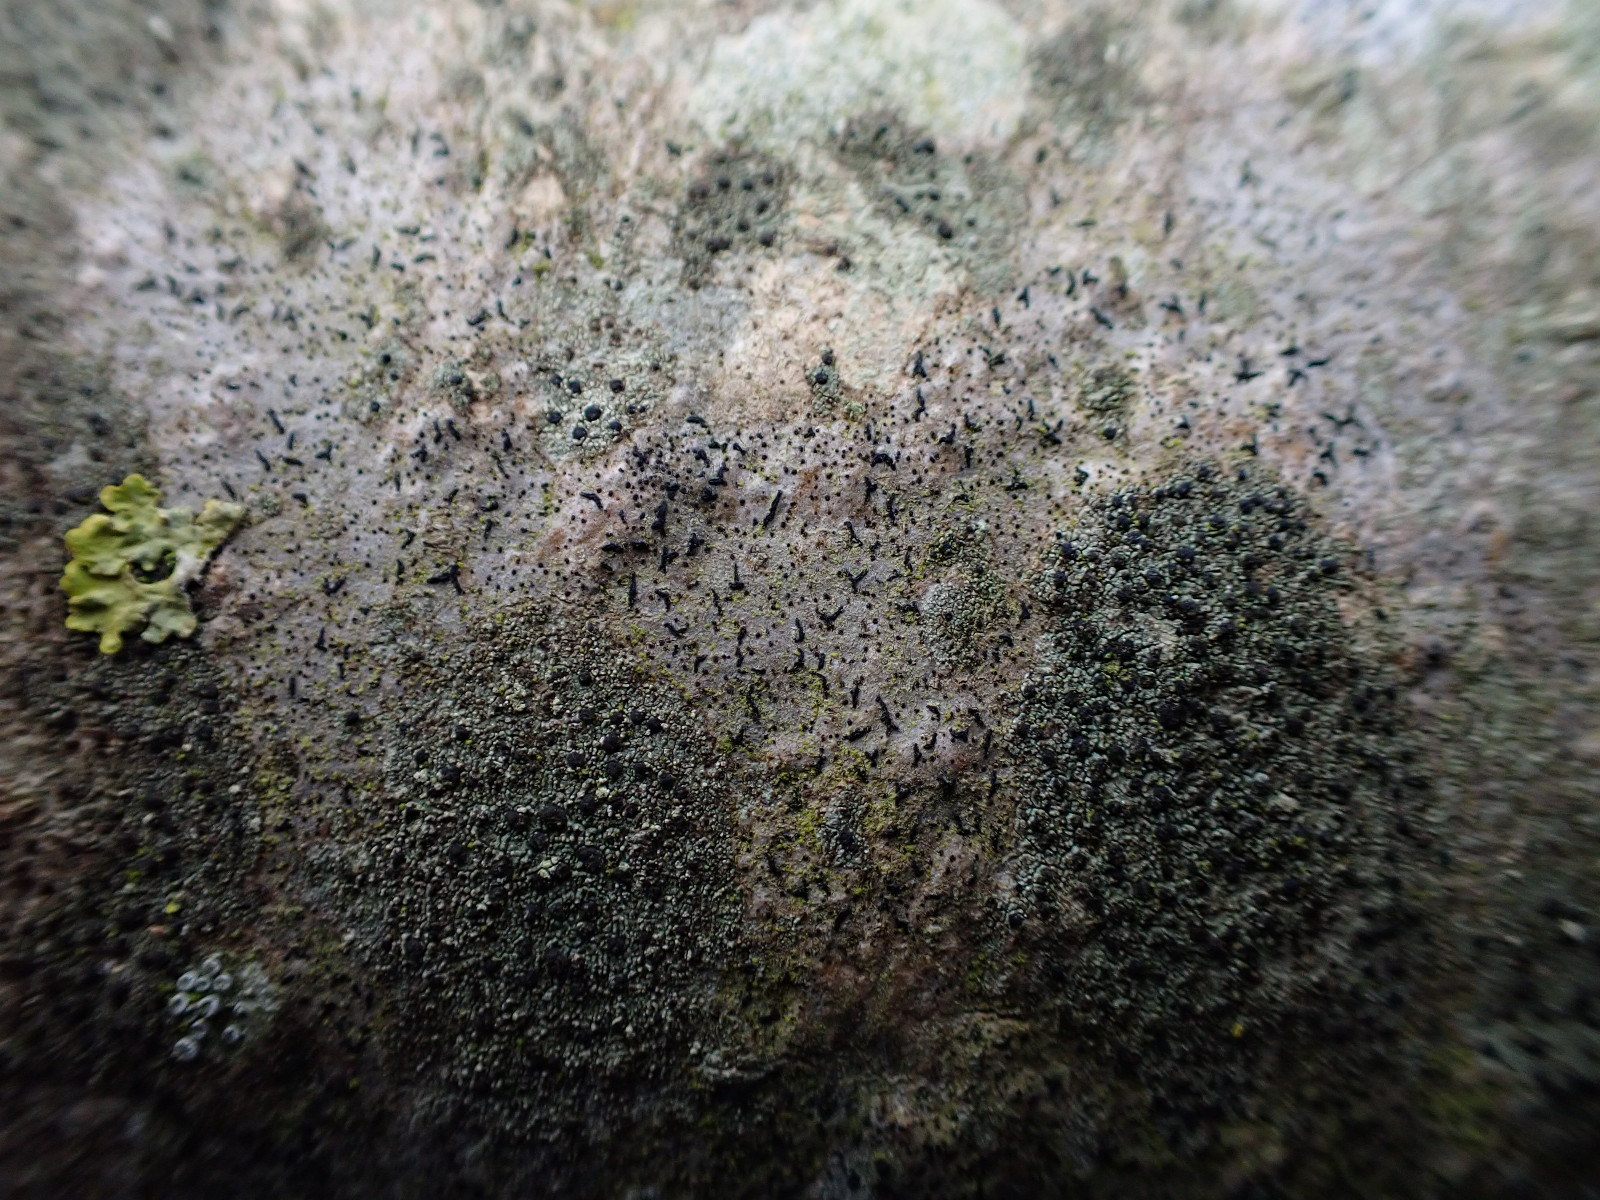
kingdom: Fungi
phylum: Ascomycota
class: Arthoniomycetes
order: Arthoniales
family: Opegraphaceae
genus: Opegrapha
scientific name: Opegrapha niveoatra
